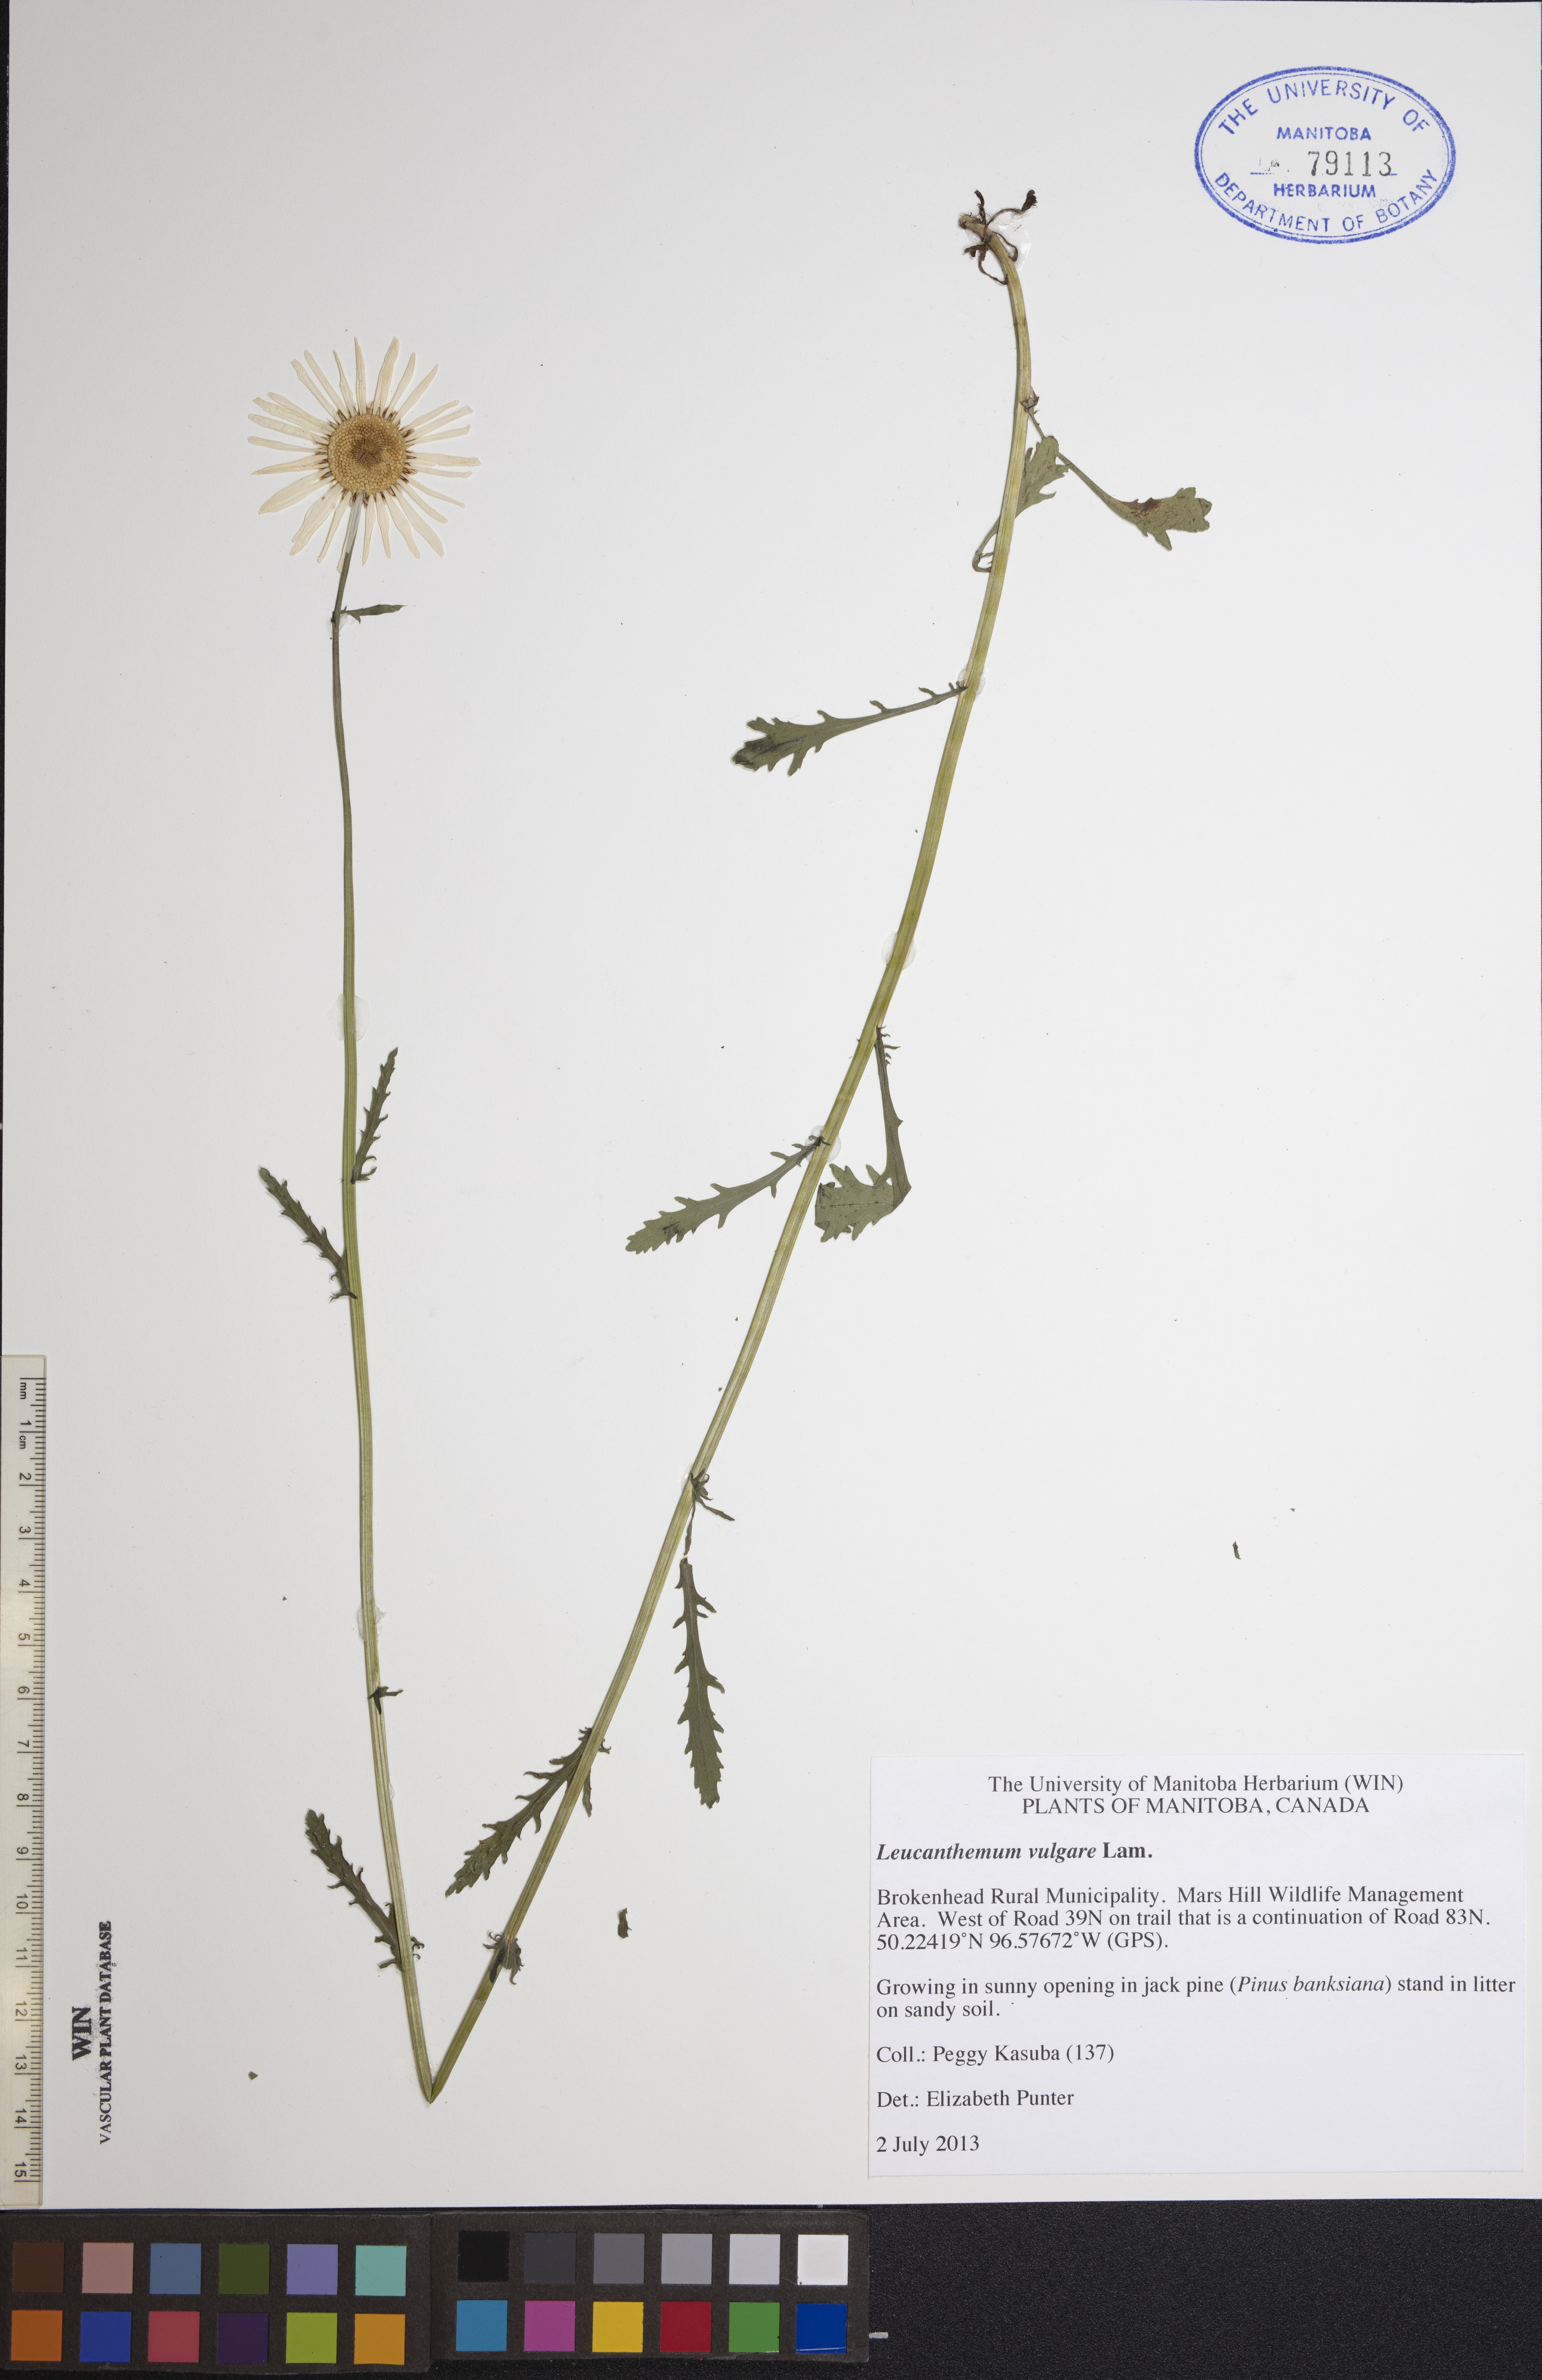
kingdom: Plantae
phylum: Tracheophyta
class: Magnoliopsida
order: Asterales
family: Asteraceae
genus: Leucanthemum
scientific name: Leucanthemum vulgare
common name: Oxeye daisy
